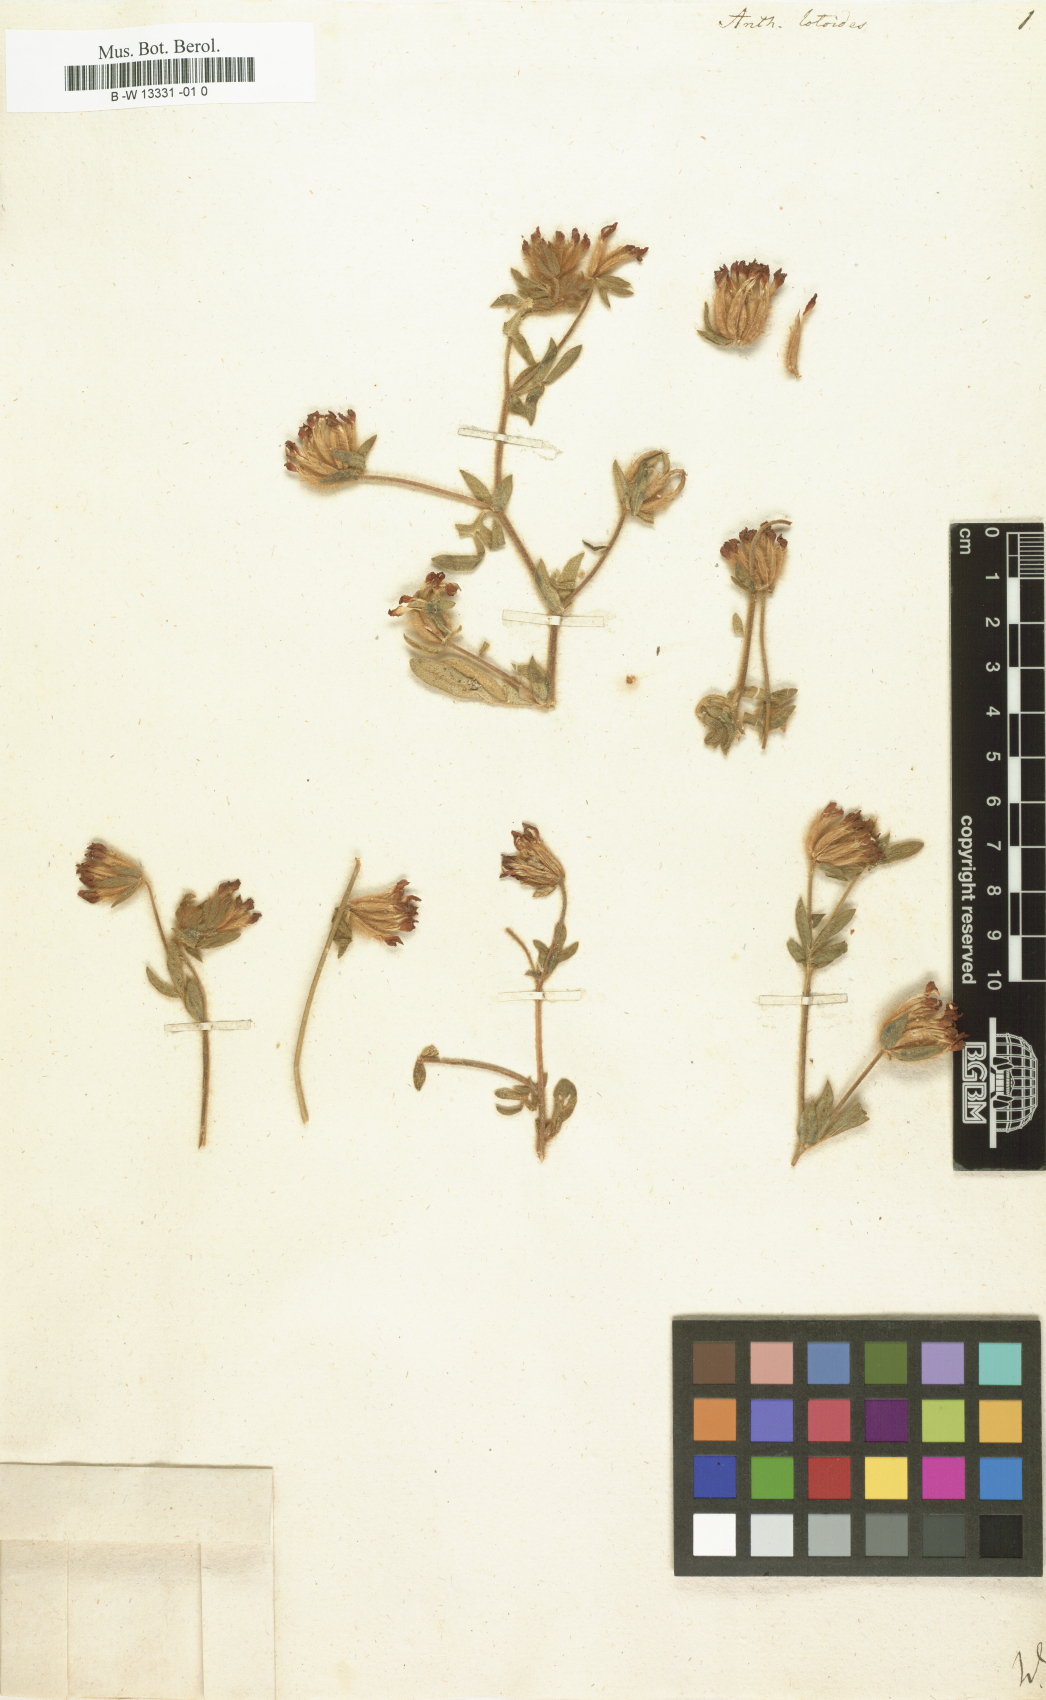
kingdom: Plantae
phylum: Tracheophyta
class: Magnoliopsida
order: Fabales
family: Fabaceae
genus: Anthyllis
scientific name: Anthyllis lotoides
